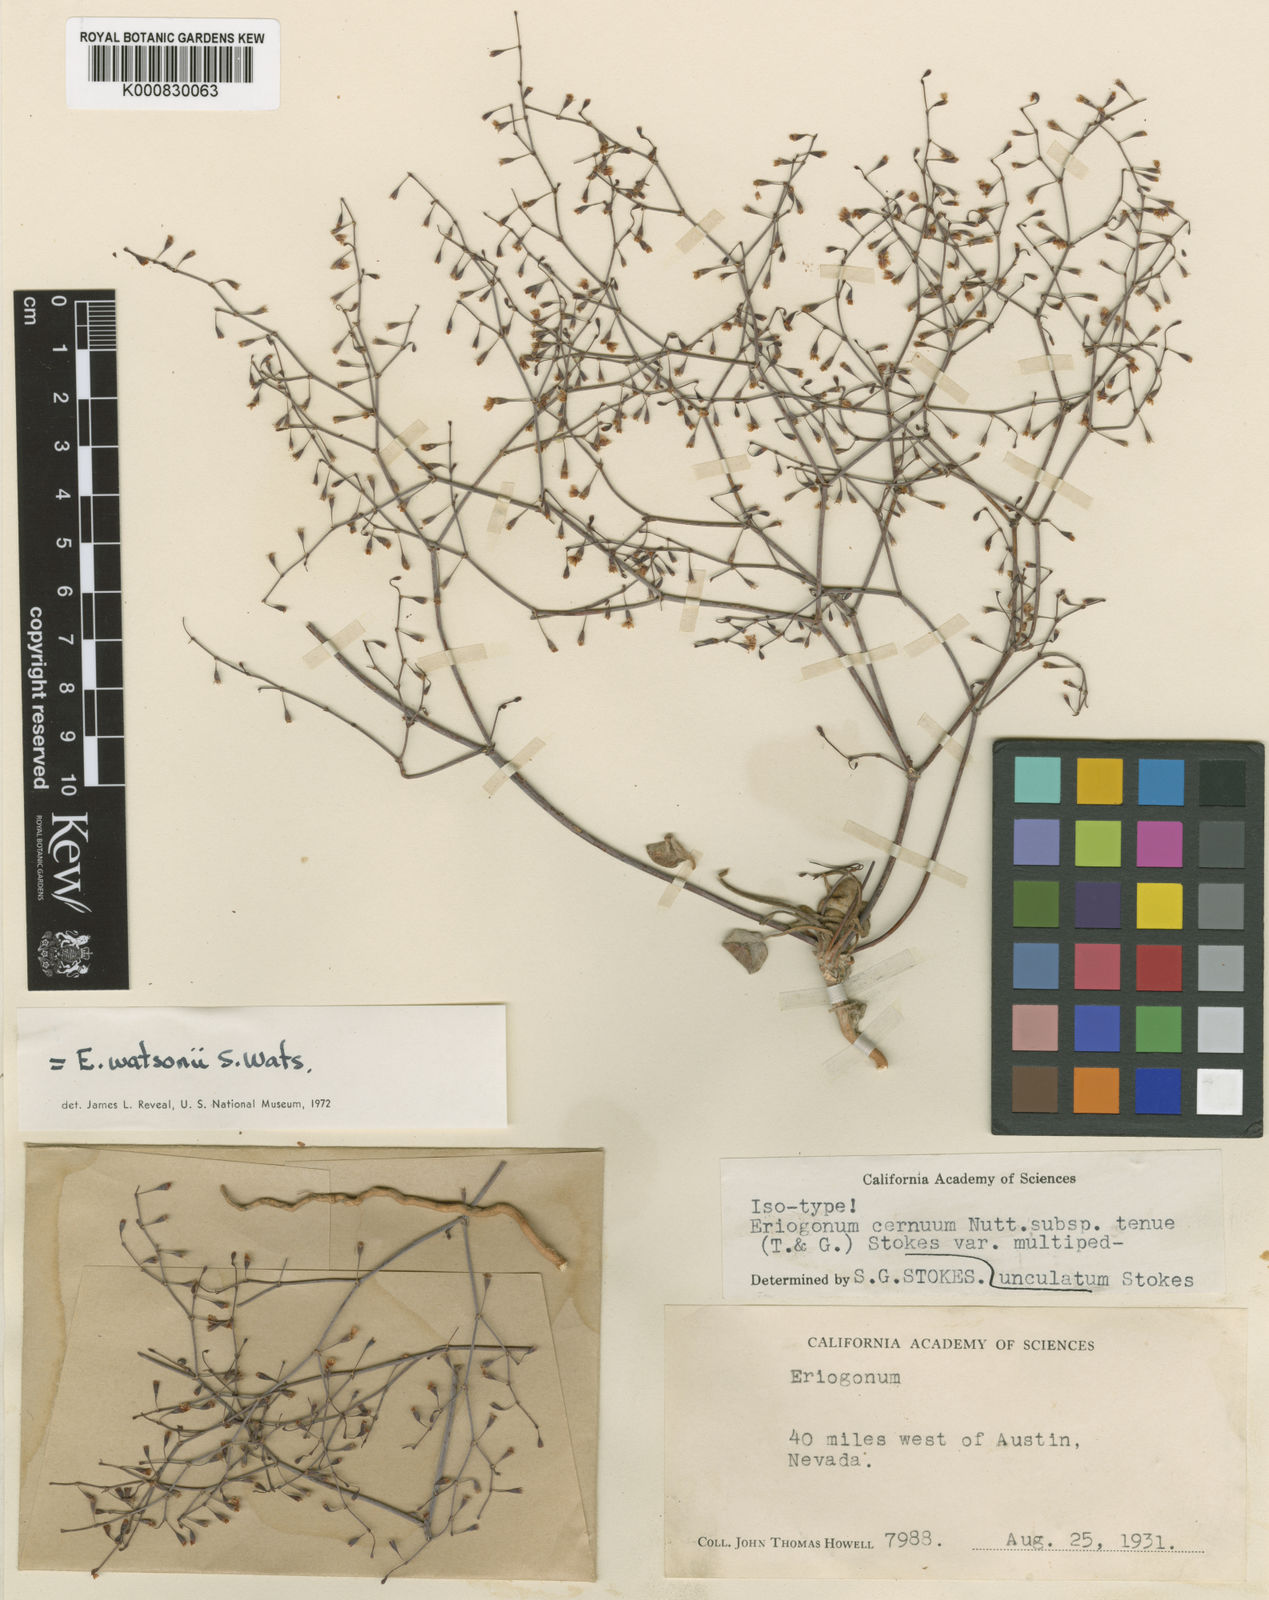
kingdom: Plantae
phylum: Tracheophyta
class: Magnoliopsida
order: Caryophyllales
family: Polygonaceae
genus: Eriogonum
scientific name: Eriogonum watsonii
